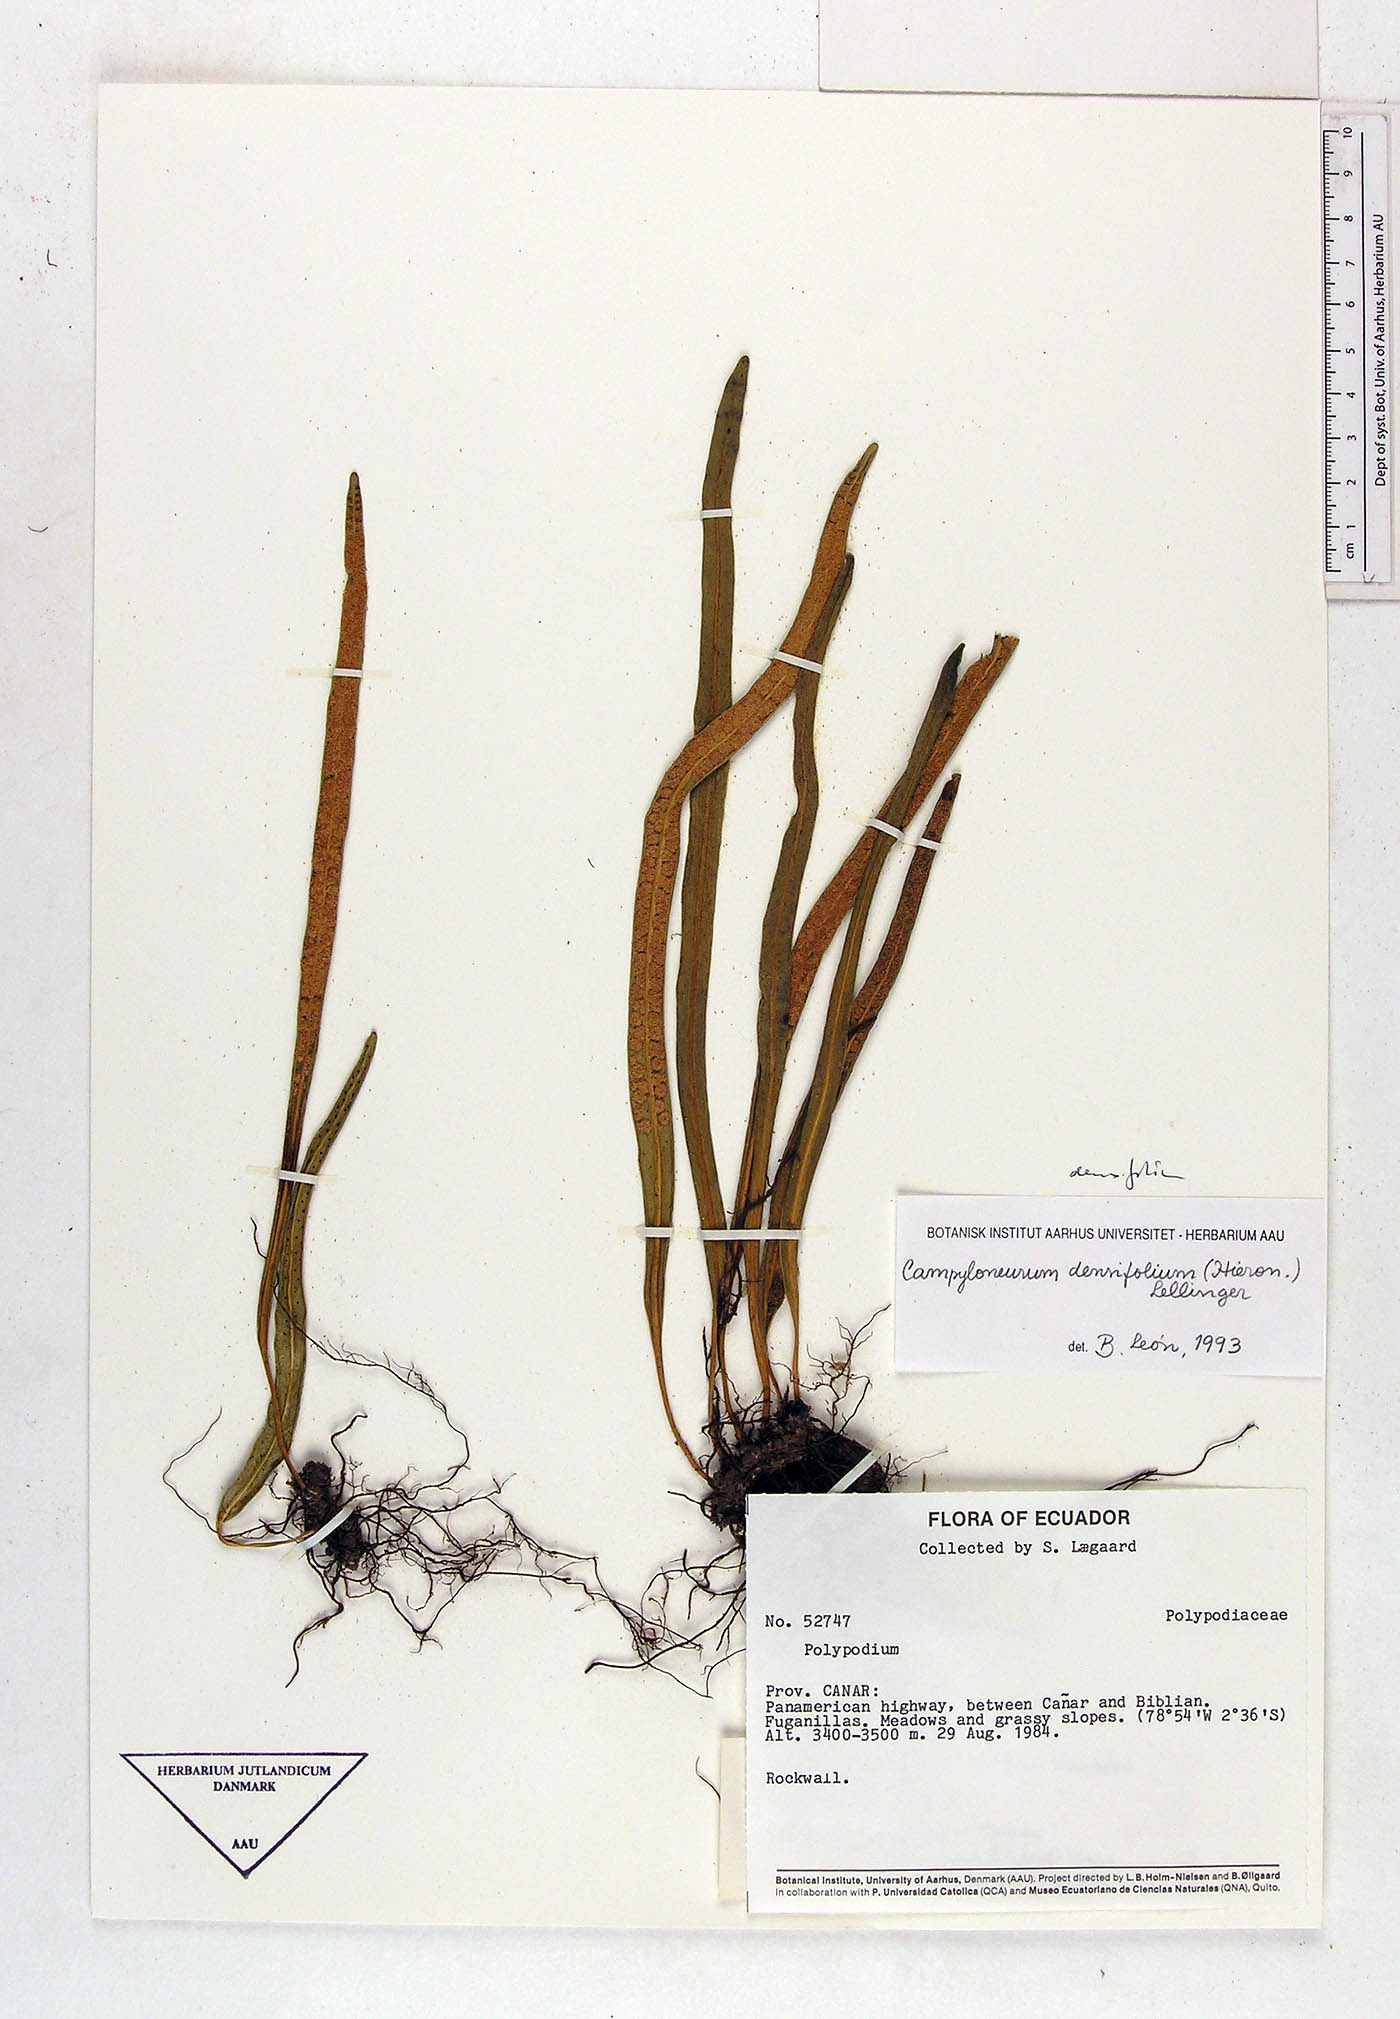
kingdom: Plantae
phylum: Tracheophyta
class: Polypodiopsida
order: Polypodiales
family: Polypodiaceae
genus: Campyloneurum
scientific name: Campyloneurum densifolium
